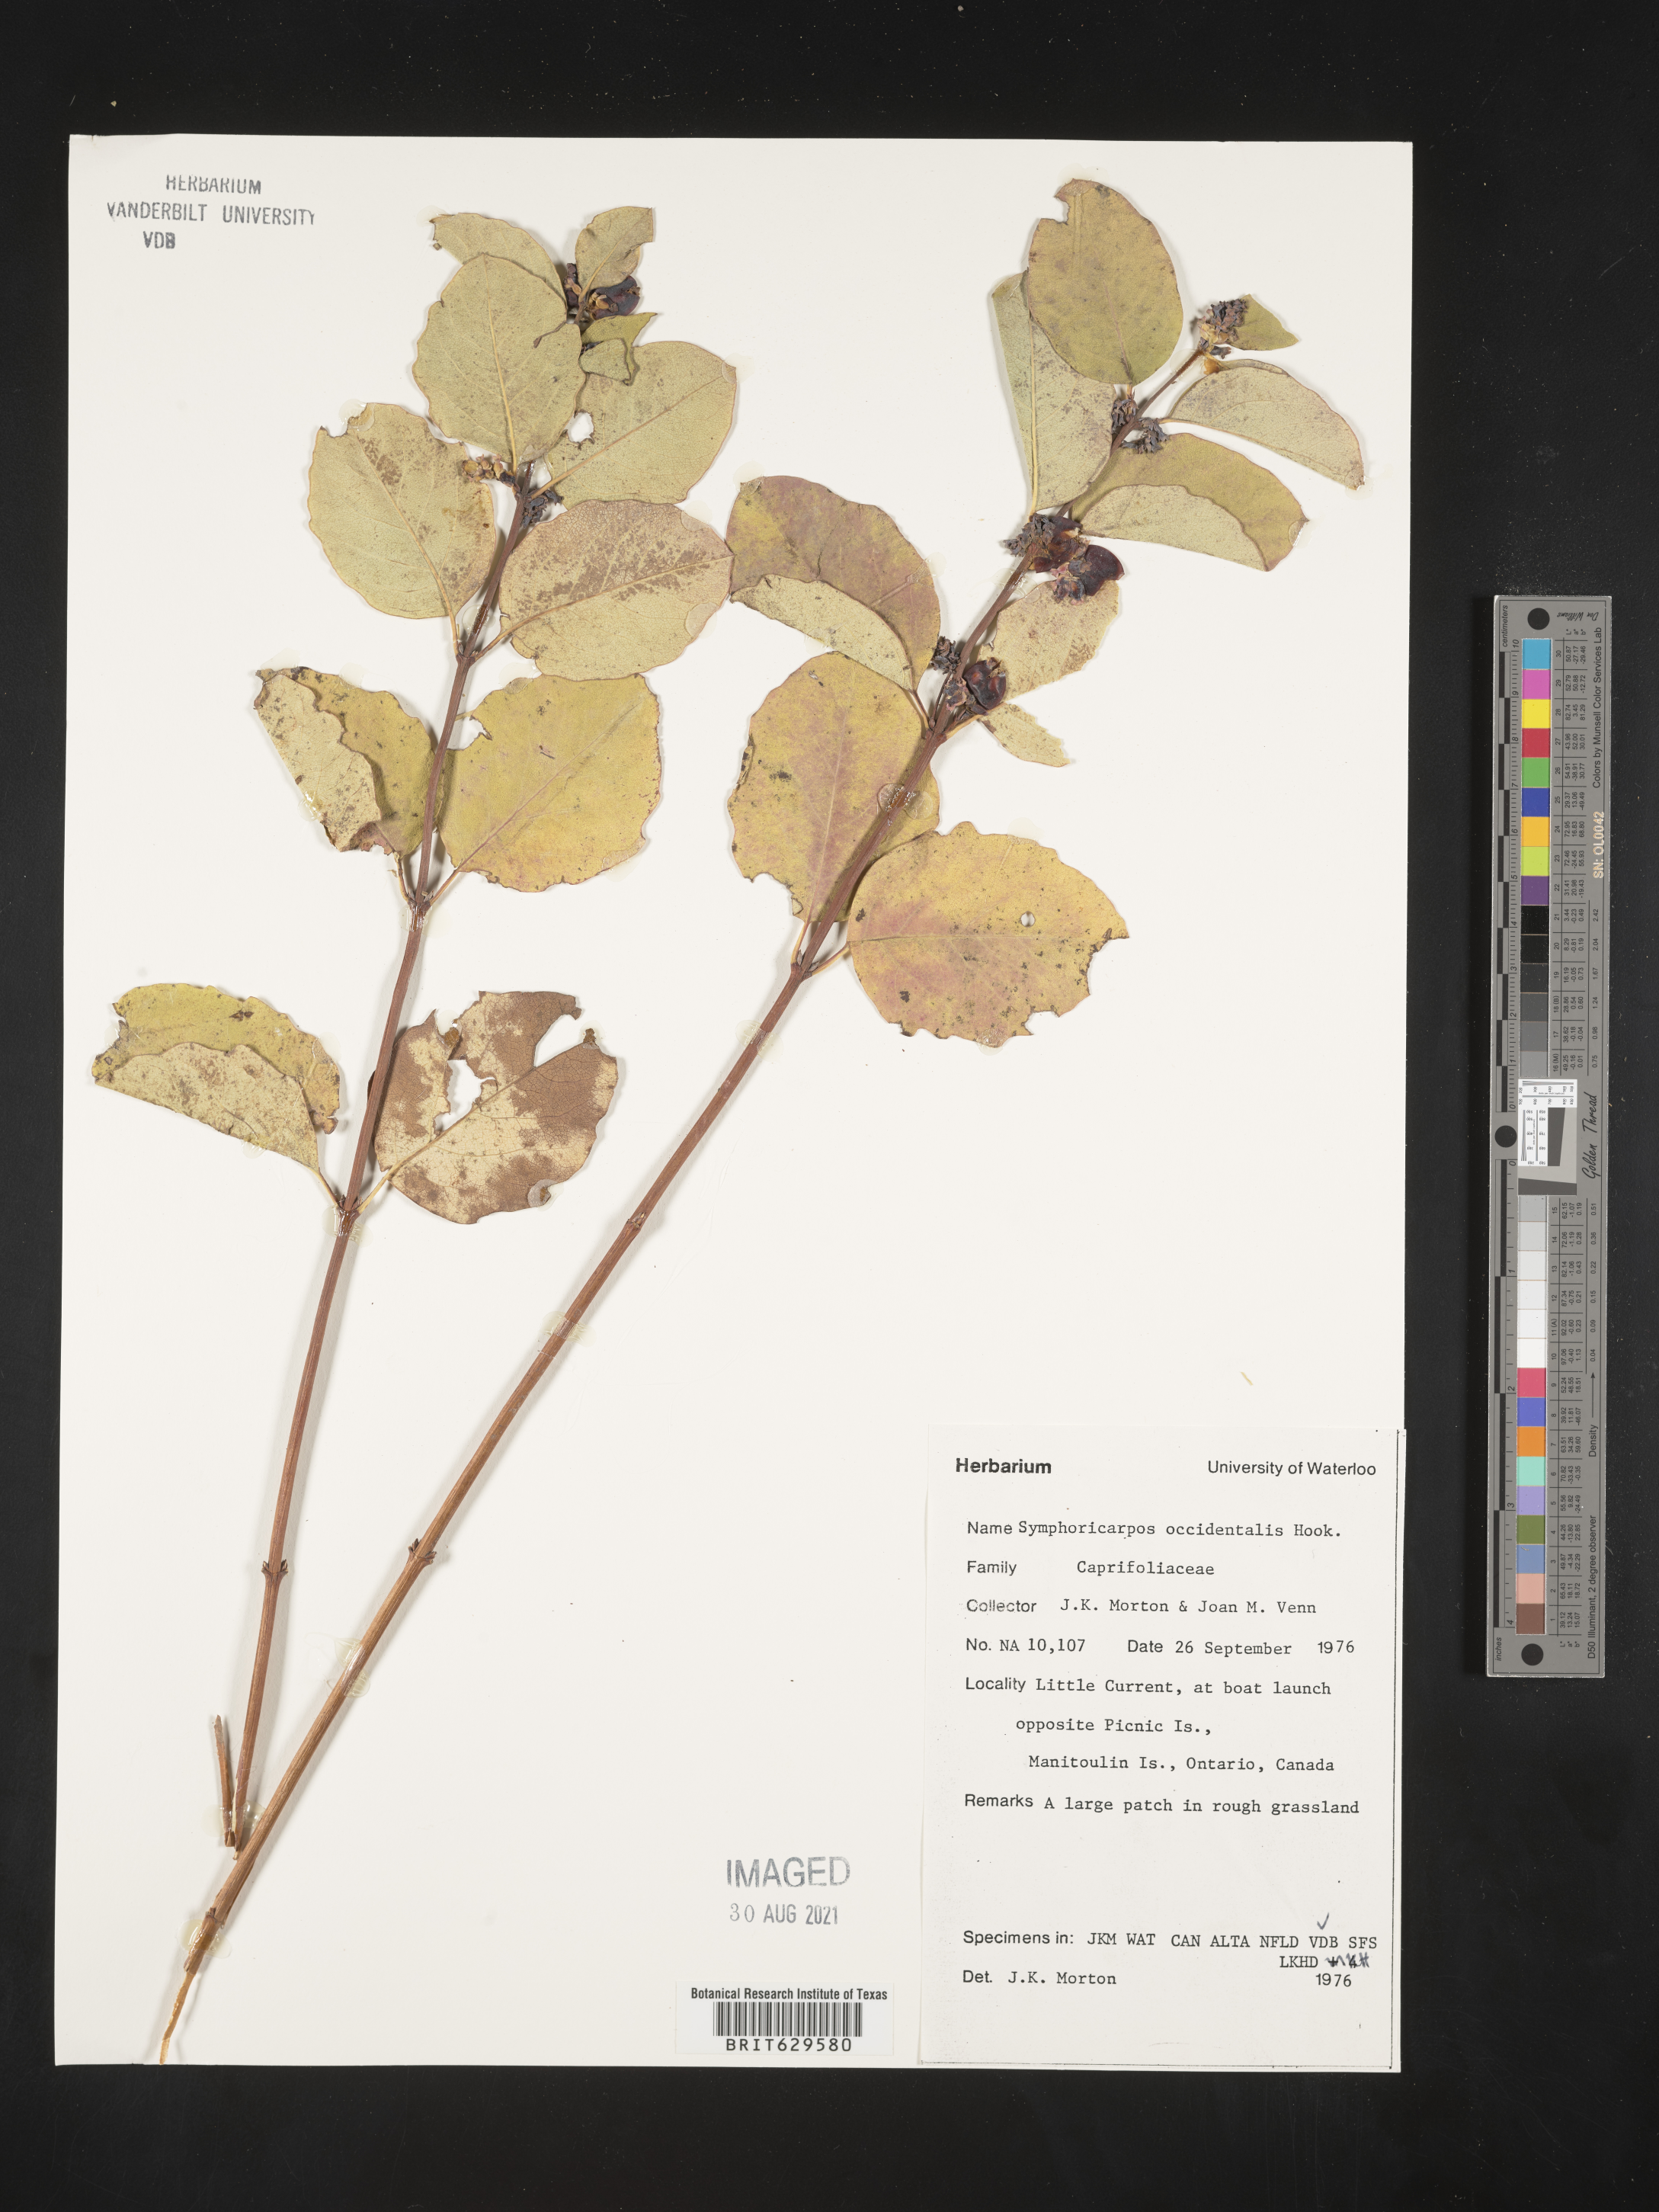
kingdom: Plantae
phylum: Tracheophyta
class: Magnoliopsida
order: Dipsacales
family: Caprifoliaceae
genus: Symphoricarpos
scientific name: Symphoricarpos occidentalis
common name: Wolfberry
